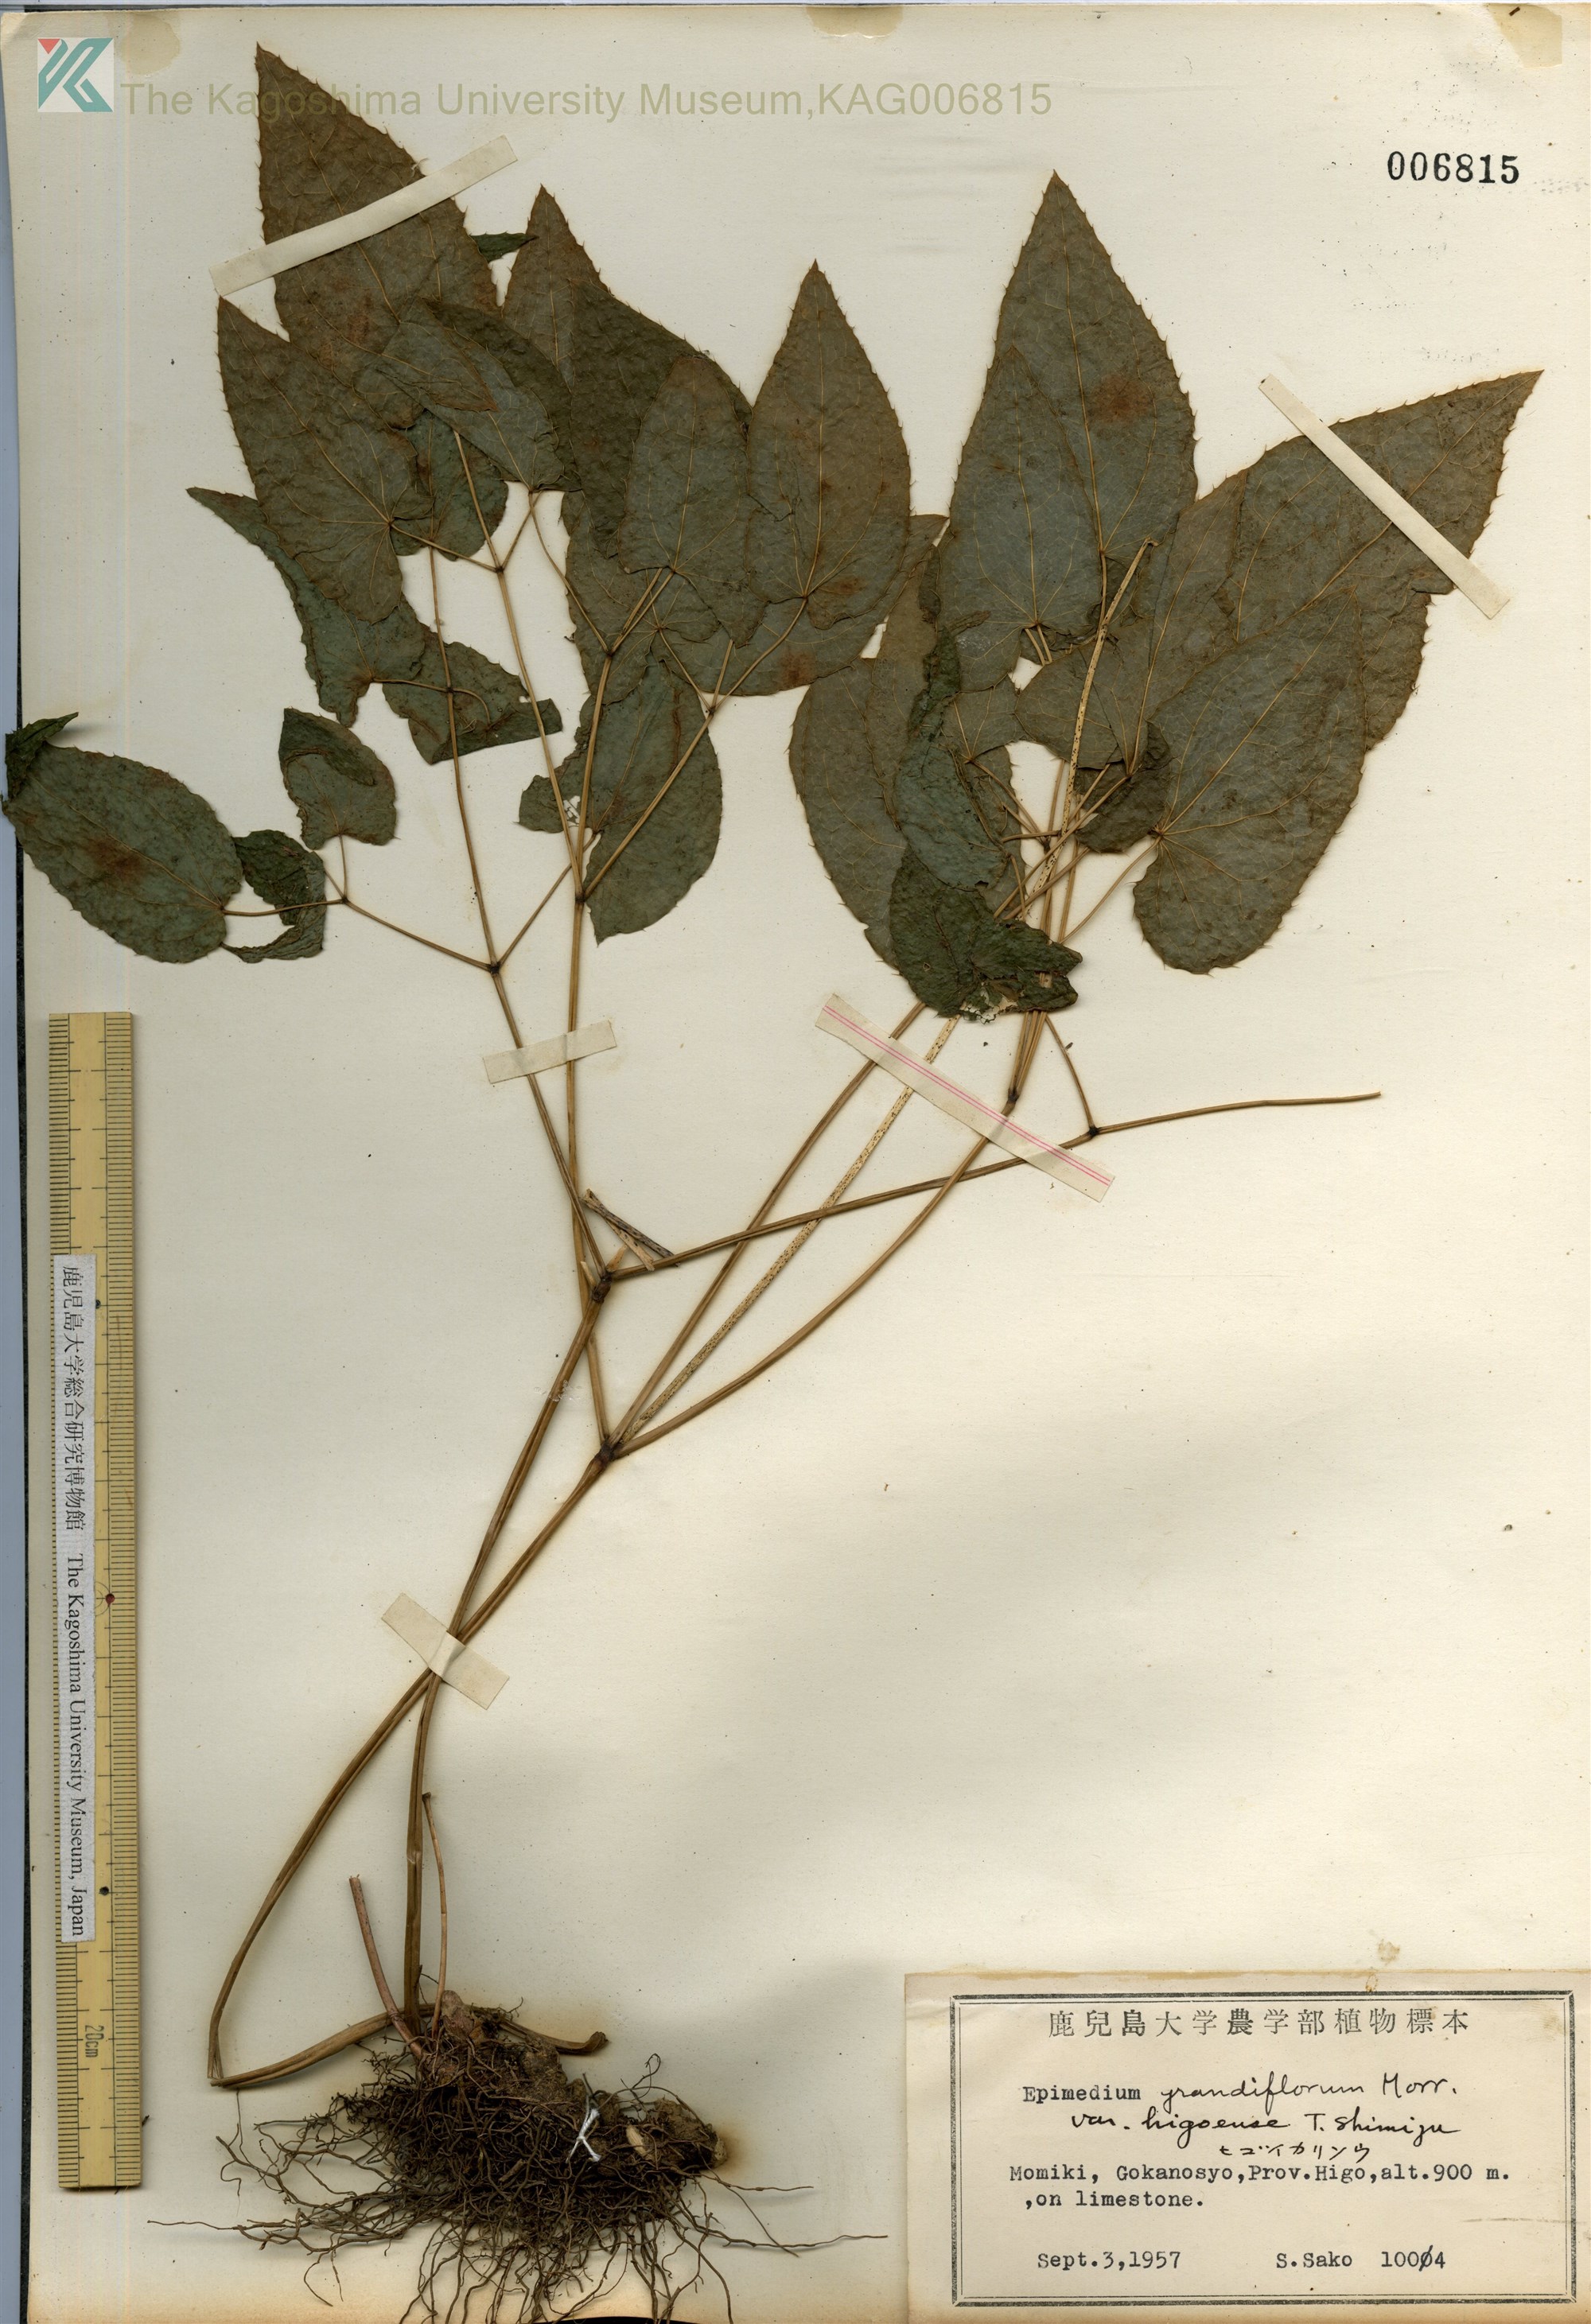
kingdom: Plantae
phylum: Tracheophyta
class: Magnoliopsida
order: Ranunculales
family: Berberidaceae
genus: Epimedium
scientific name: Epimedium grandiflorum
